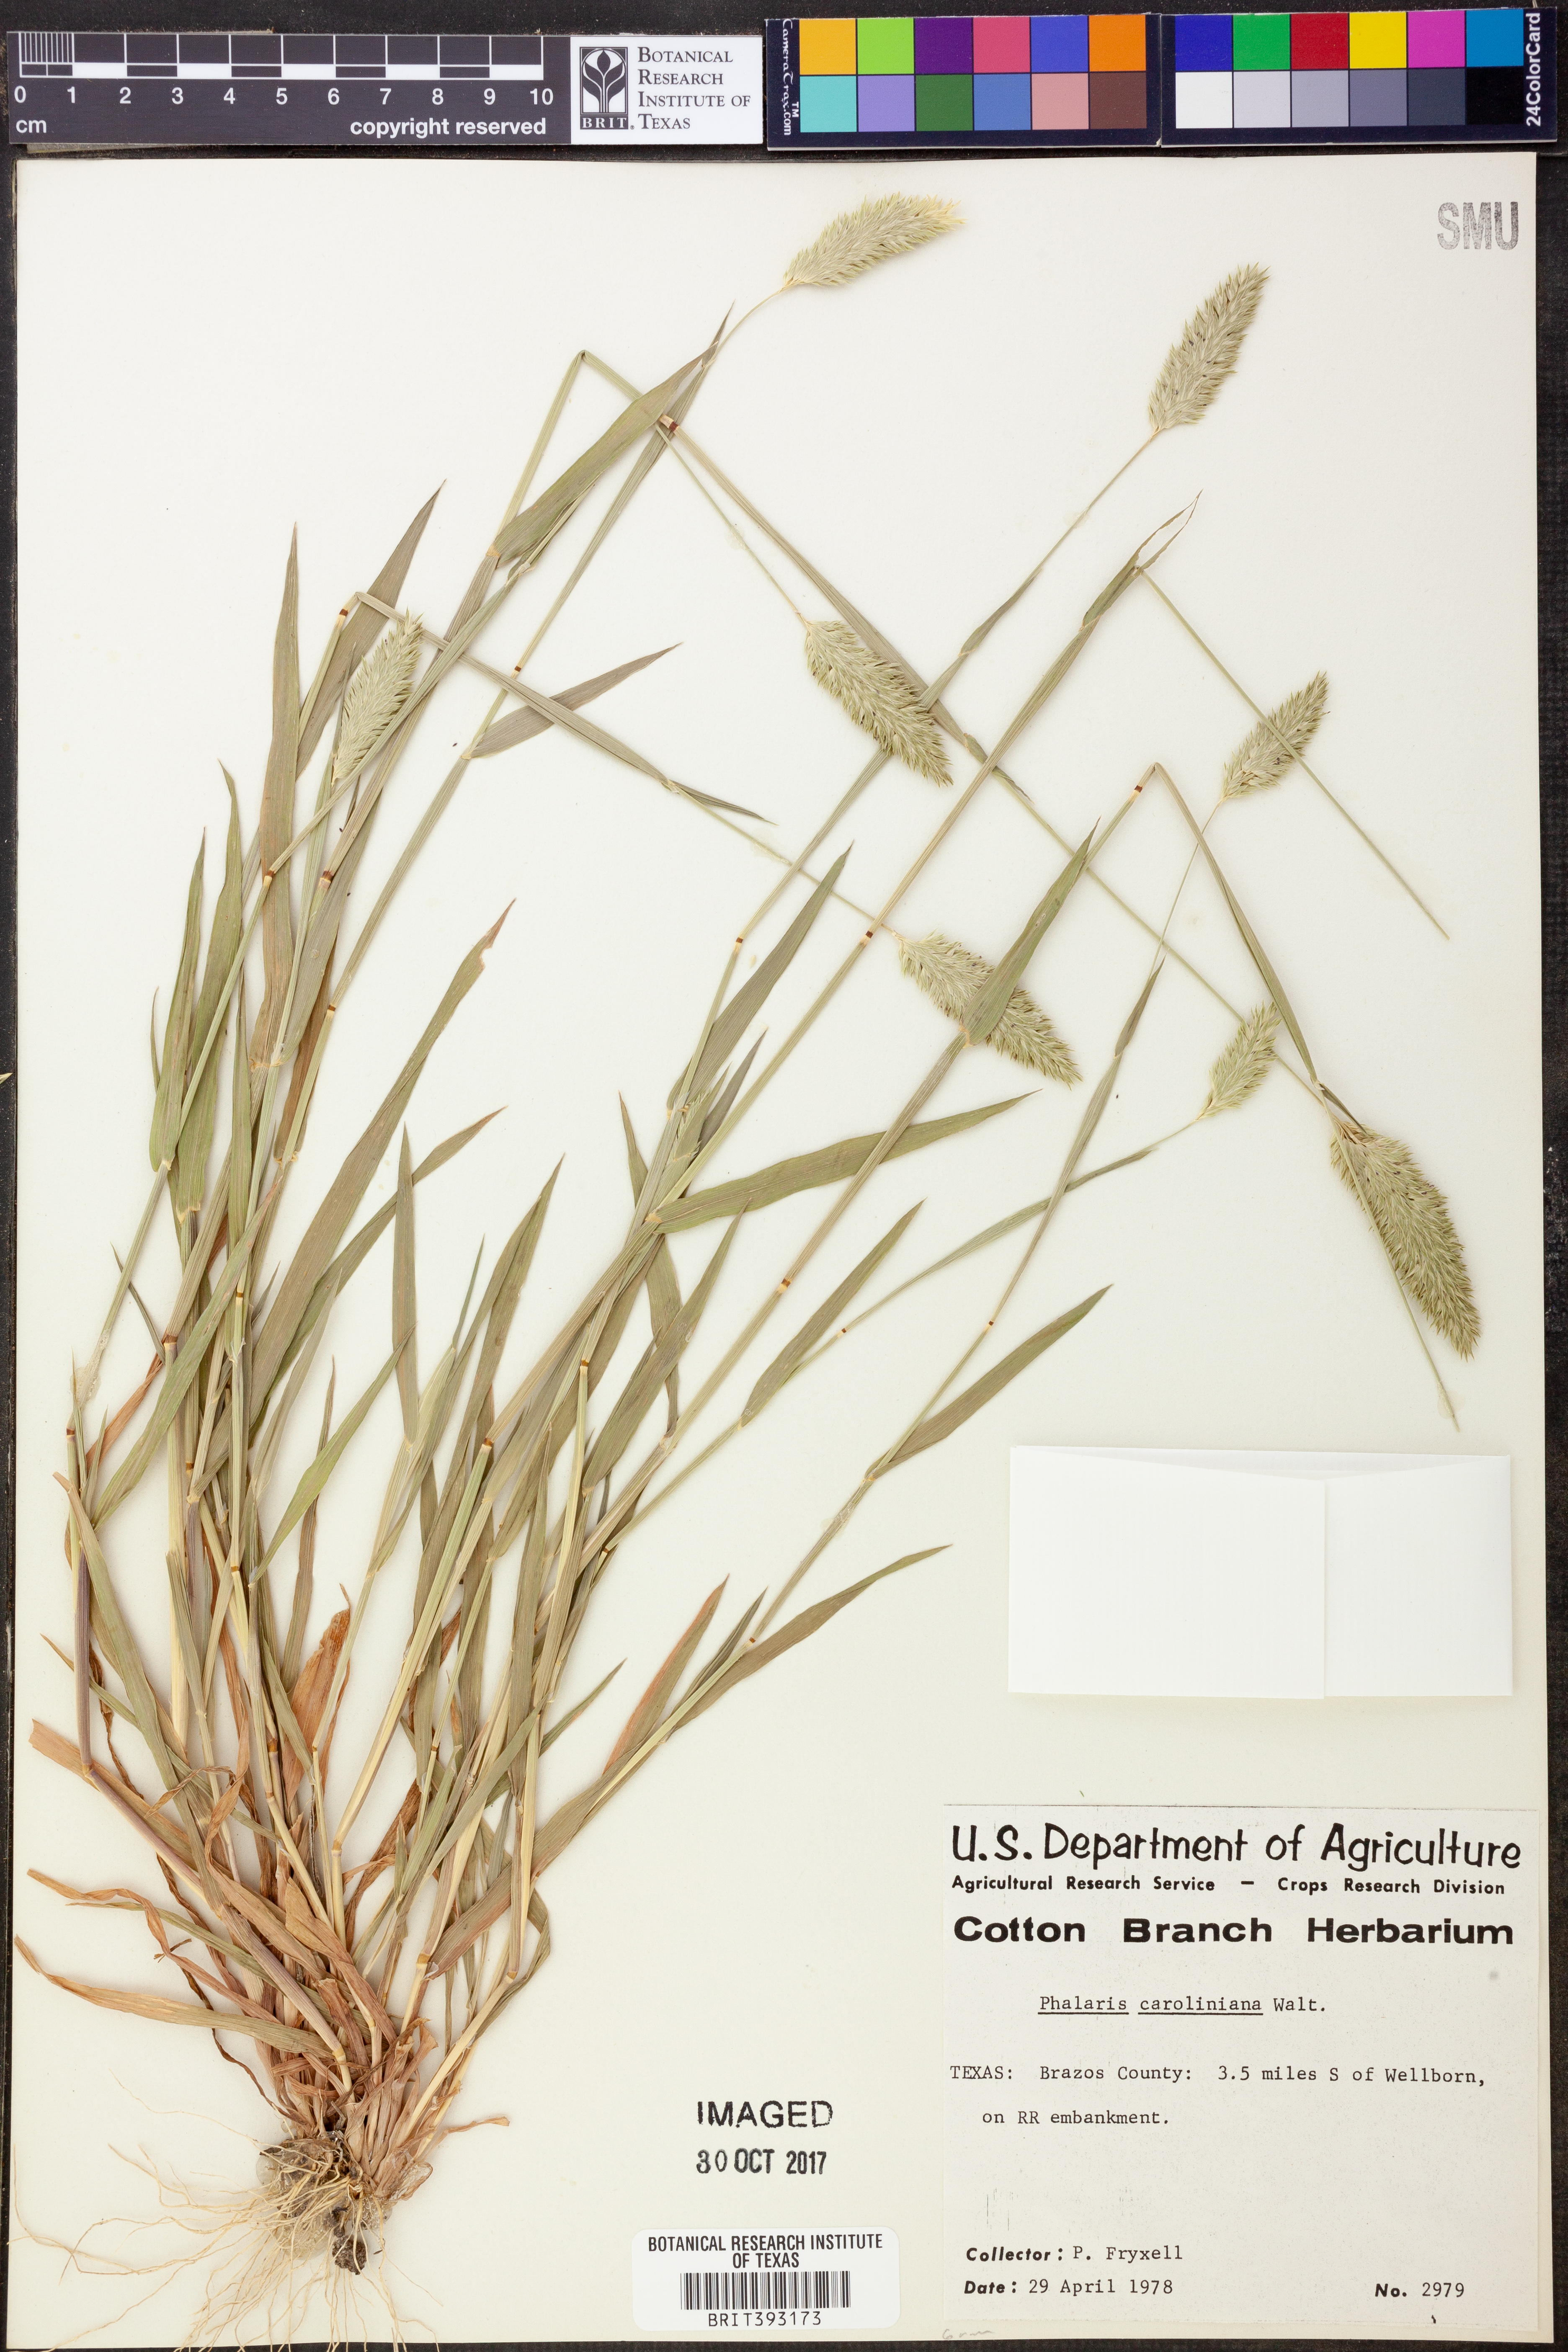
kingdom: Plantae
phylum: Tracheophyta
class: Liliopsida
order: Poales
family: Poaceae
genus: Phalaris
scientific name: Phalaris caroliniana
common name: May grass
